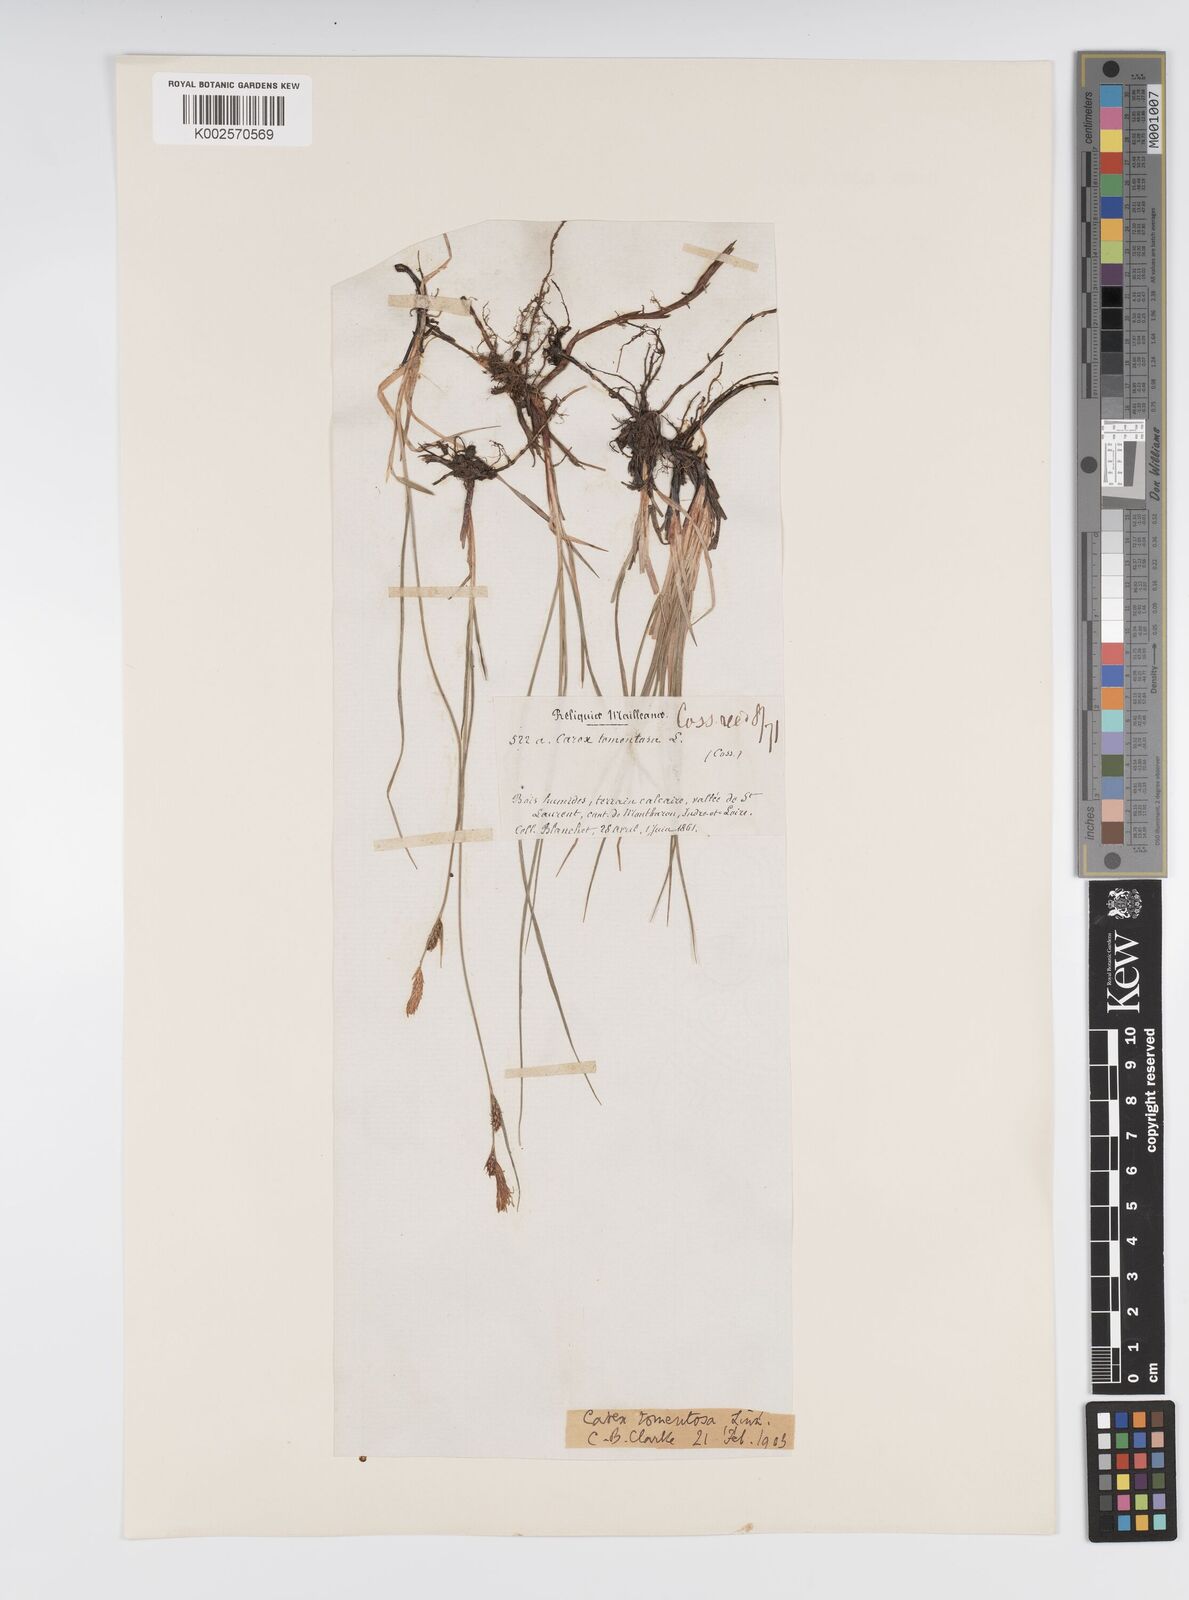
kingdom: Plantae
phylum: Tracheophyta
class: Liliopsida
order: Poales
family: Cyperaceae
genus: Carex
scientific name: Carex montana
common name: Soft-leaved sedge
